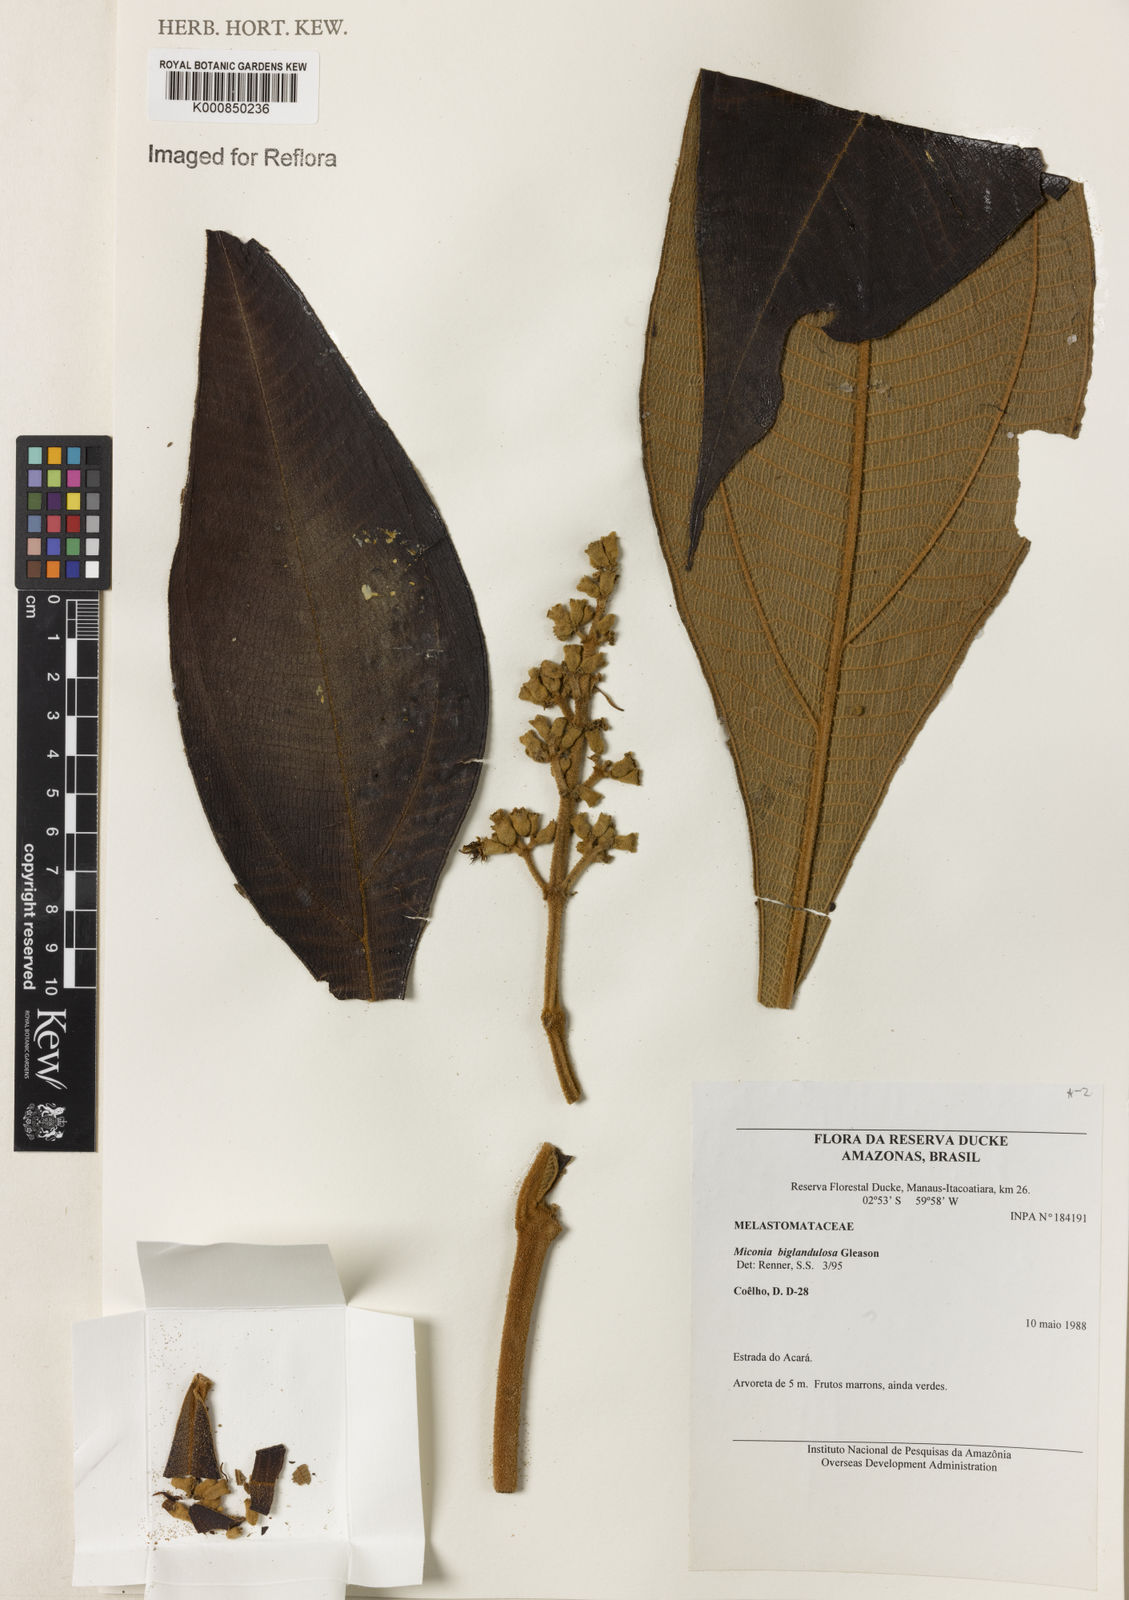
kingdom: Plantae
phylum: Tracheophyta
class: Magnoliopsida
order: Myrtales
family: Melastomataceae
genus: Miconia
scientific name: Miconia biglandulosa
